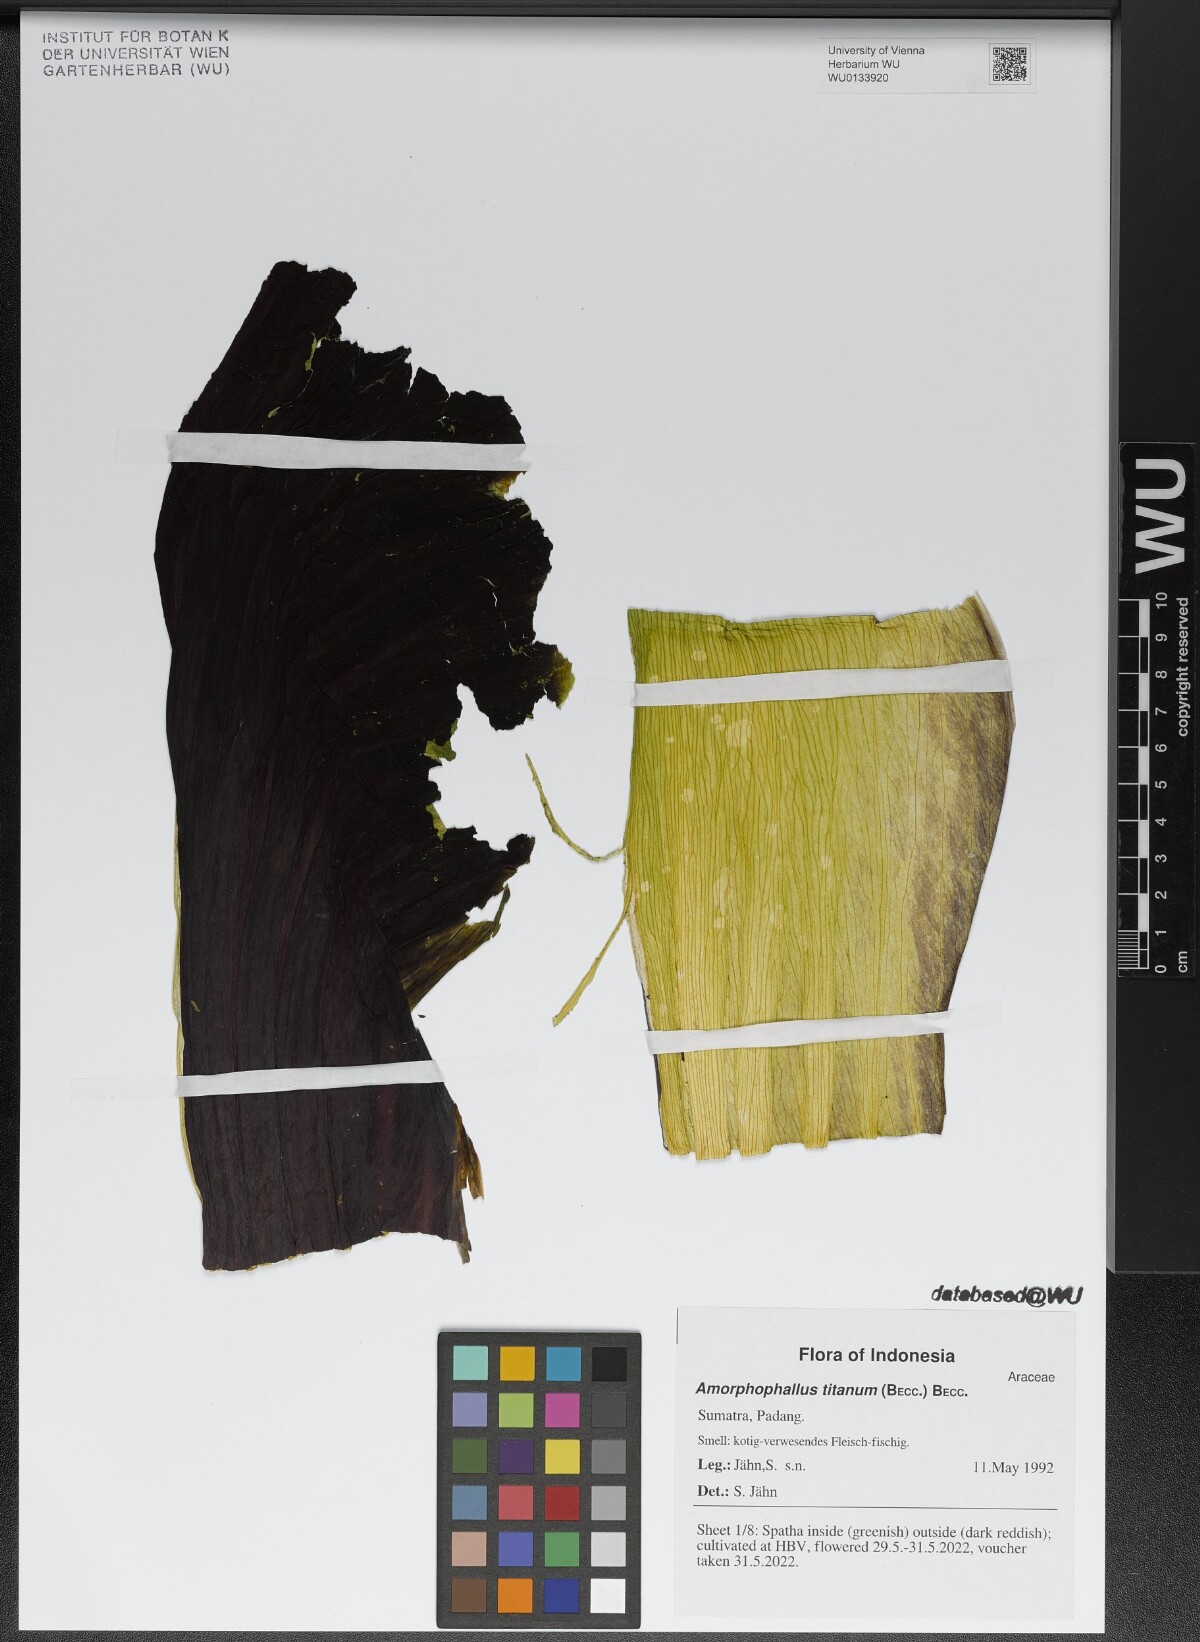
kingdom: Plantae
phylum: Tracheophyta
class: Liliopsida
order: Alismatales
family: Araceae
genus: Amorphophallus
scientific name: Amorphophallus titanum
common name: Titan arum
